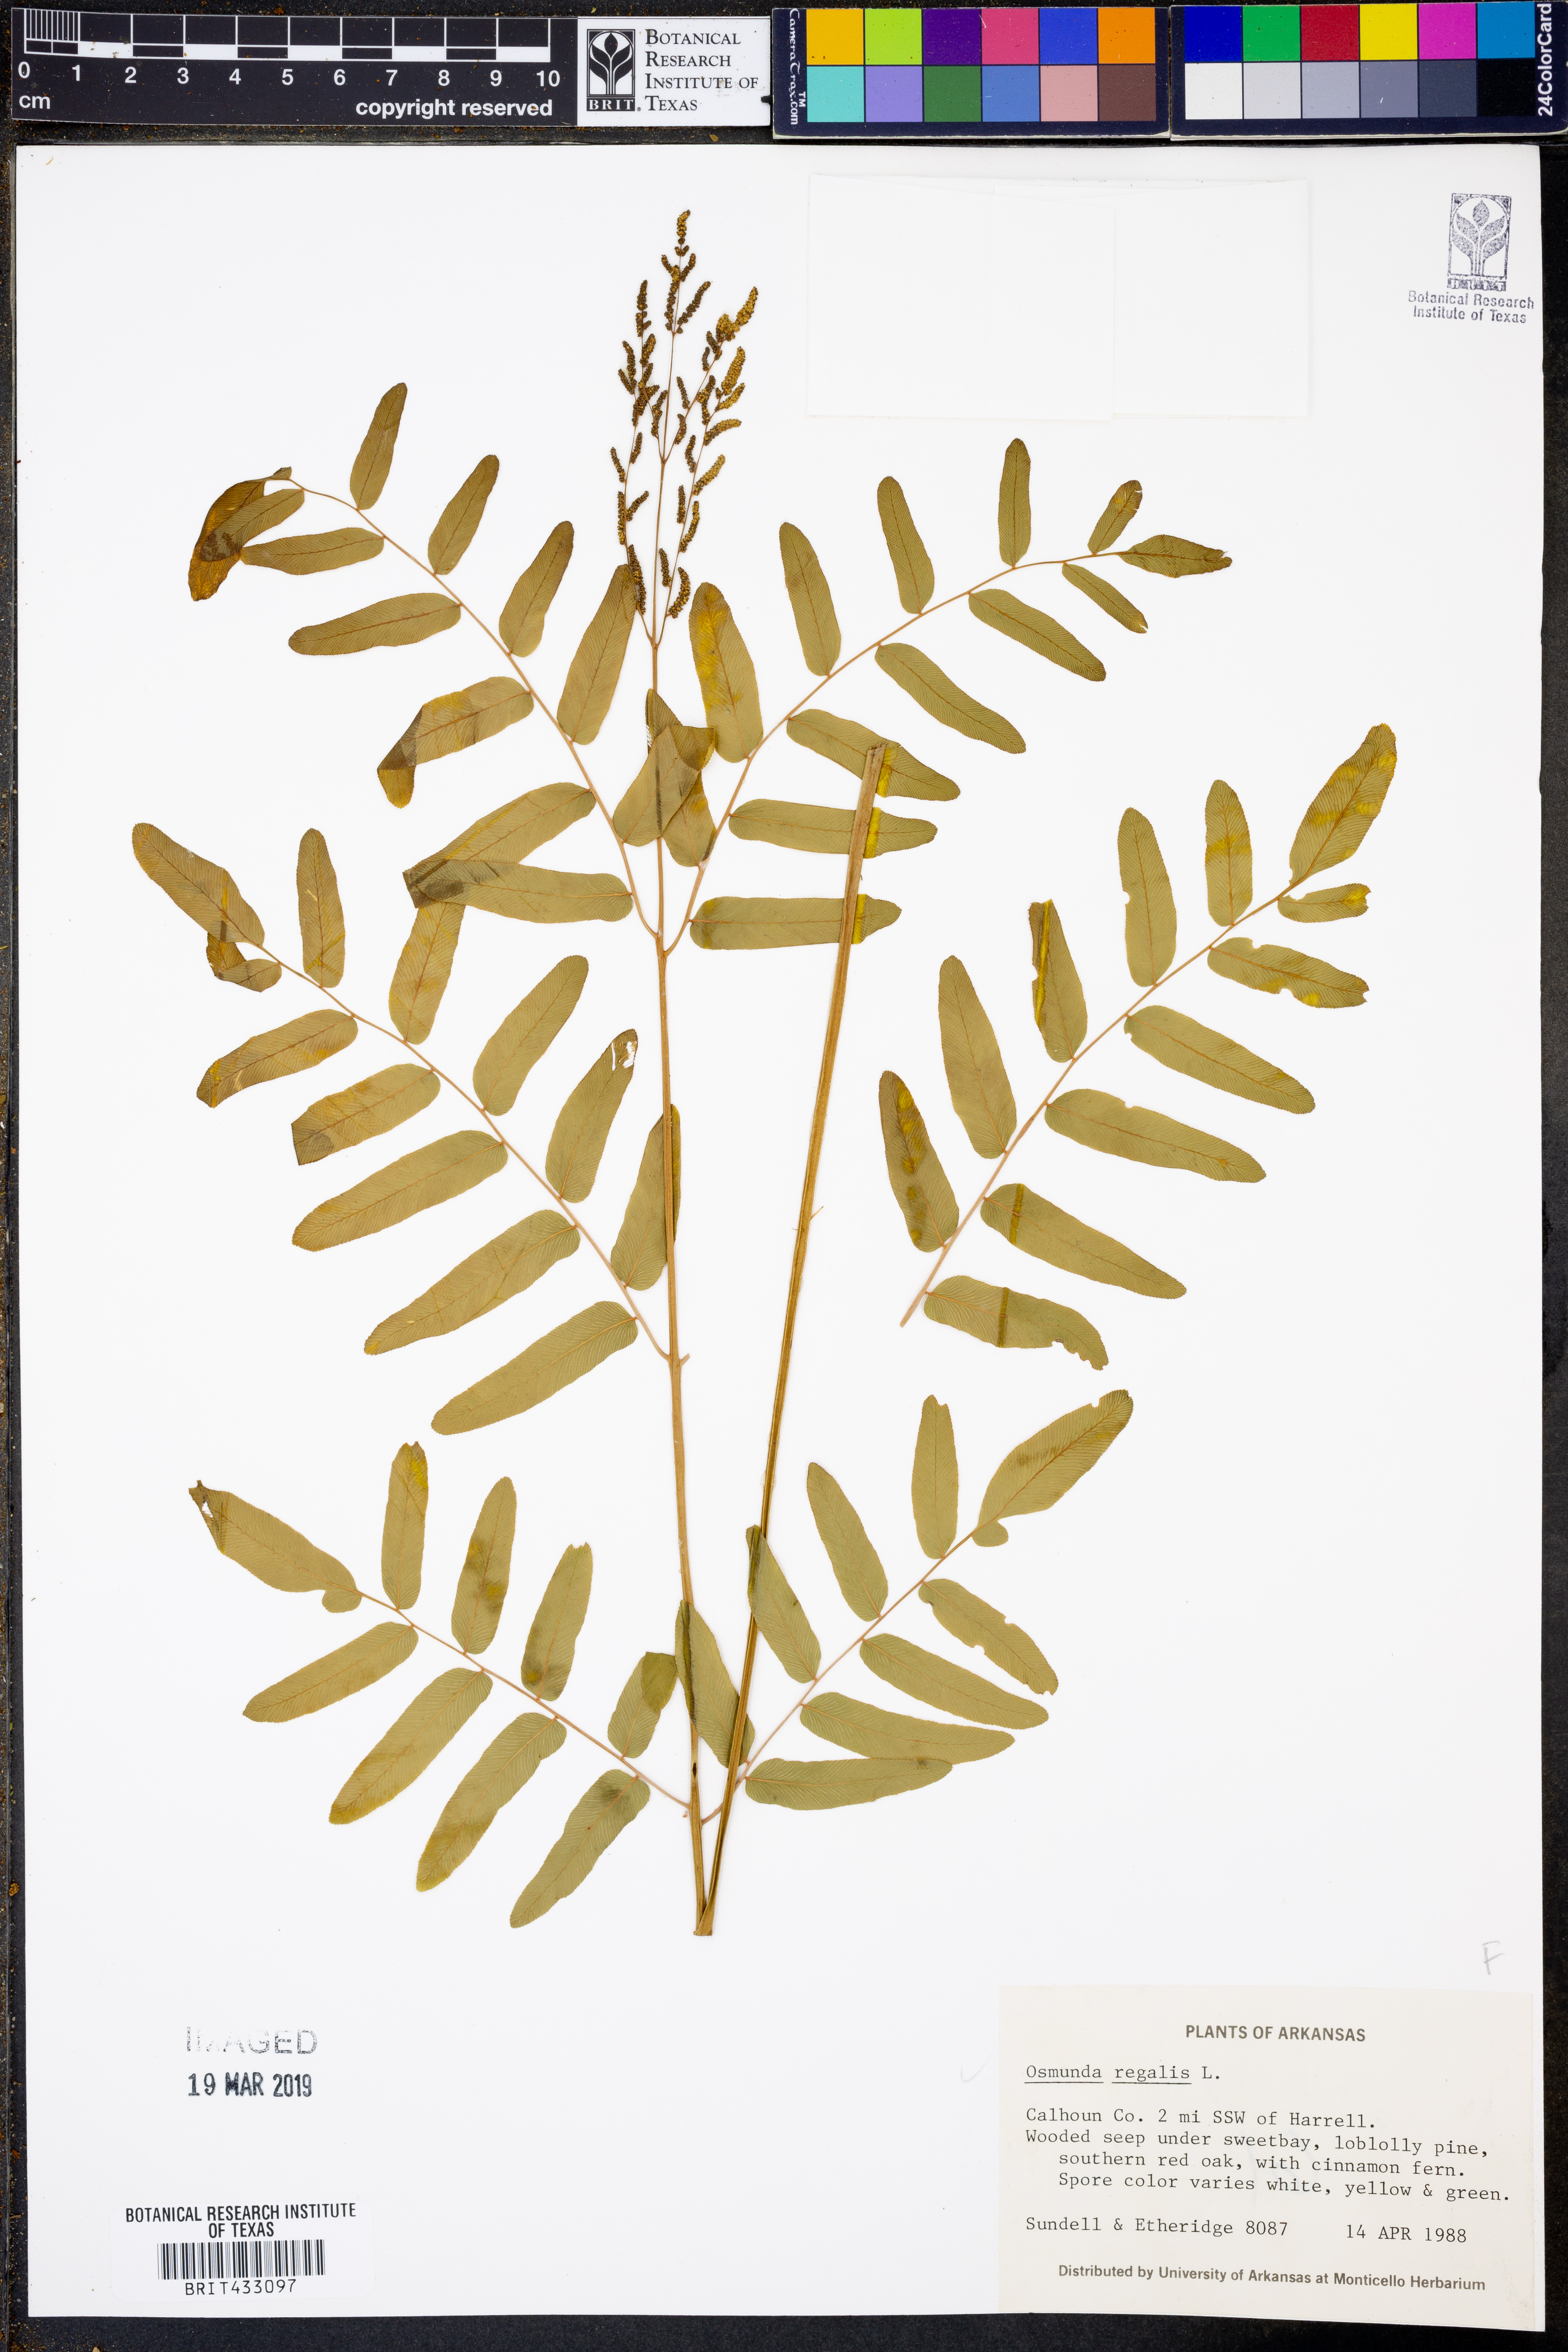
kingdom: Plantae
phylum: Tracheophyta
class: Polypodiopsida
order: Osmundales
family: Osmundaceae
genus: Osmunda
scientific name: Osmunda regalis
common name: Royal fern
